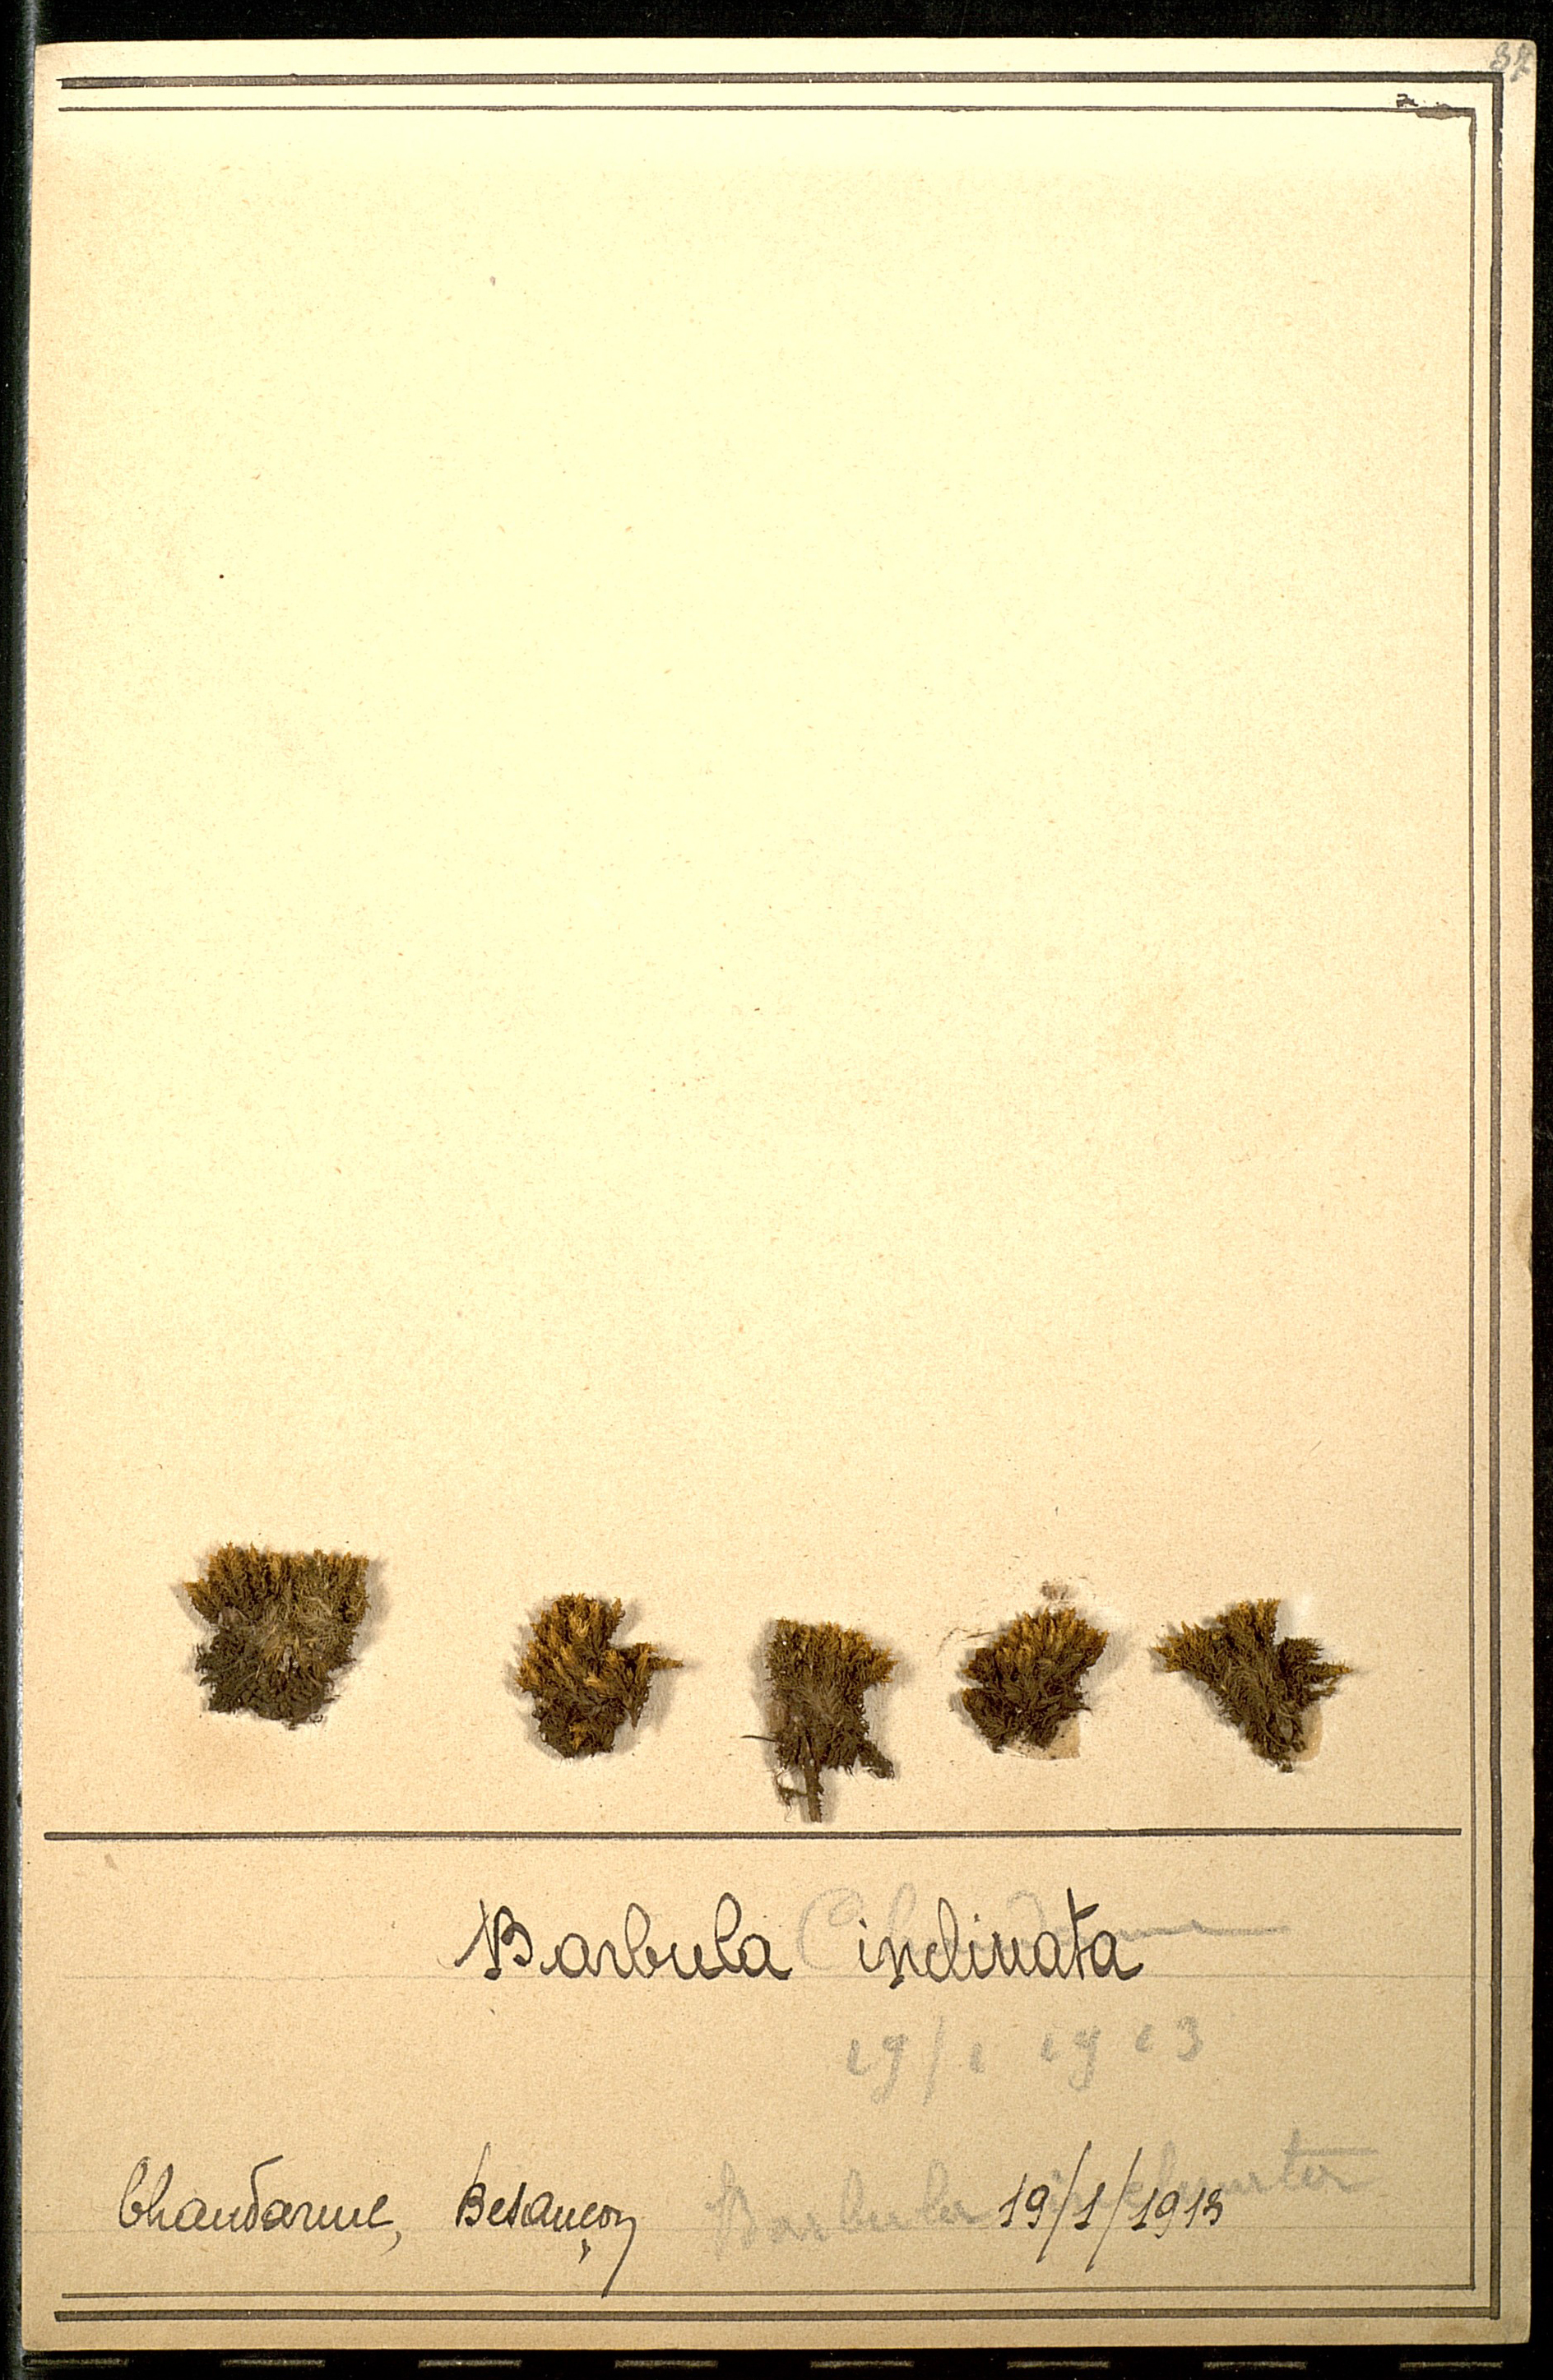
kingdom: Plantae
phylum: Bryophyta
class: Bryopsida
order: Pottiales
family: Pottiaceae
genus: Hydrogonium
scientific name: Hydrogonium orientale
